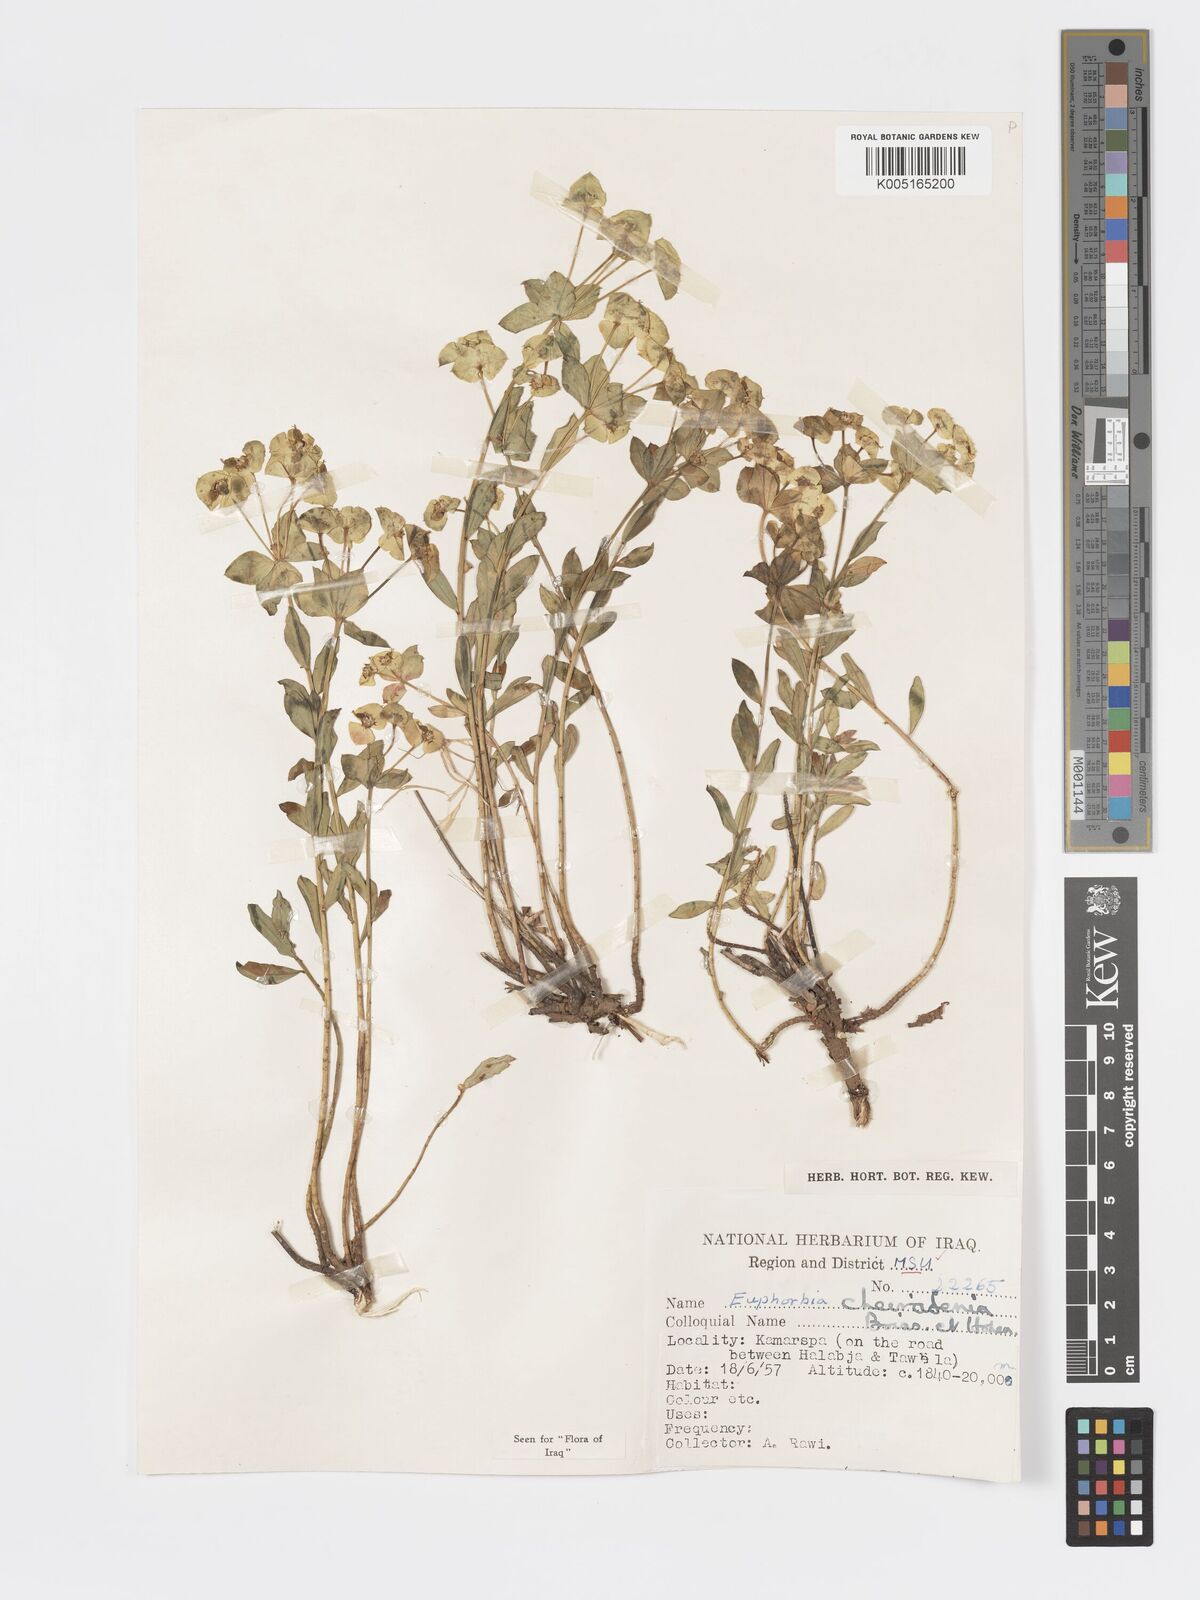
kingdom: Plantae
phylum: Tracheophyta
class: Magnoliopsida
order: Malpighiales
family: Euphorbiaceae
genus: Euphorbia
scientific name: Euphorbia cheiradenia
